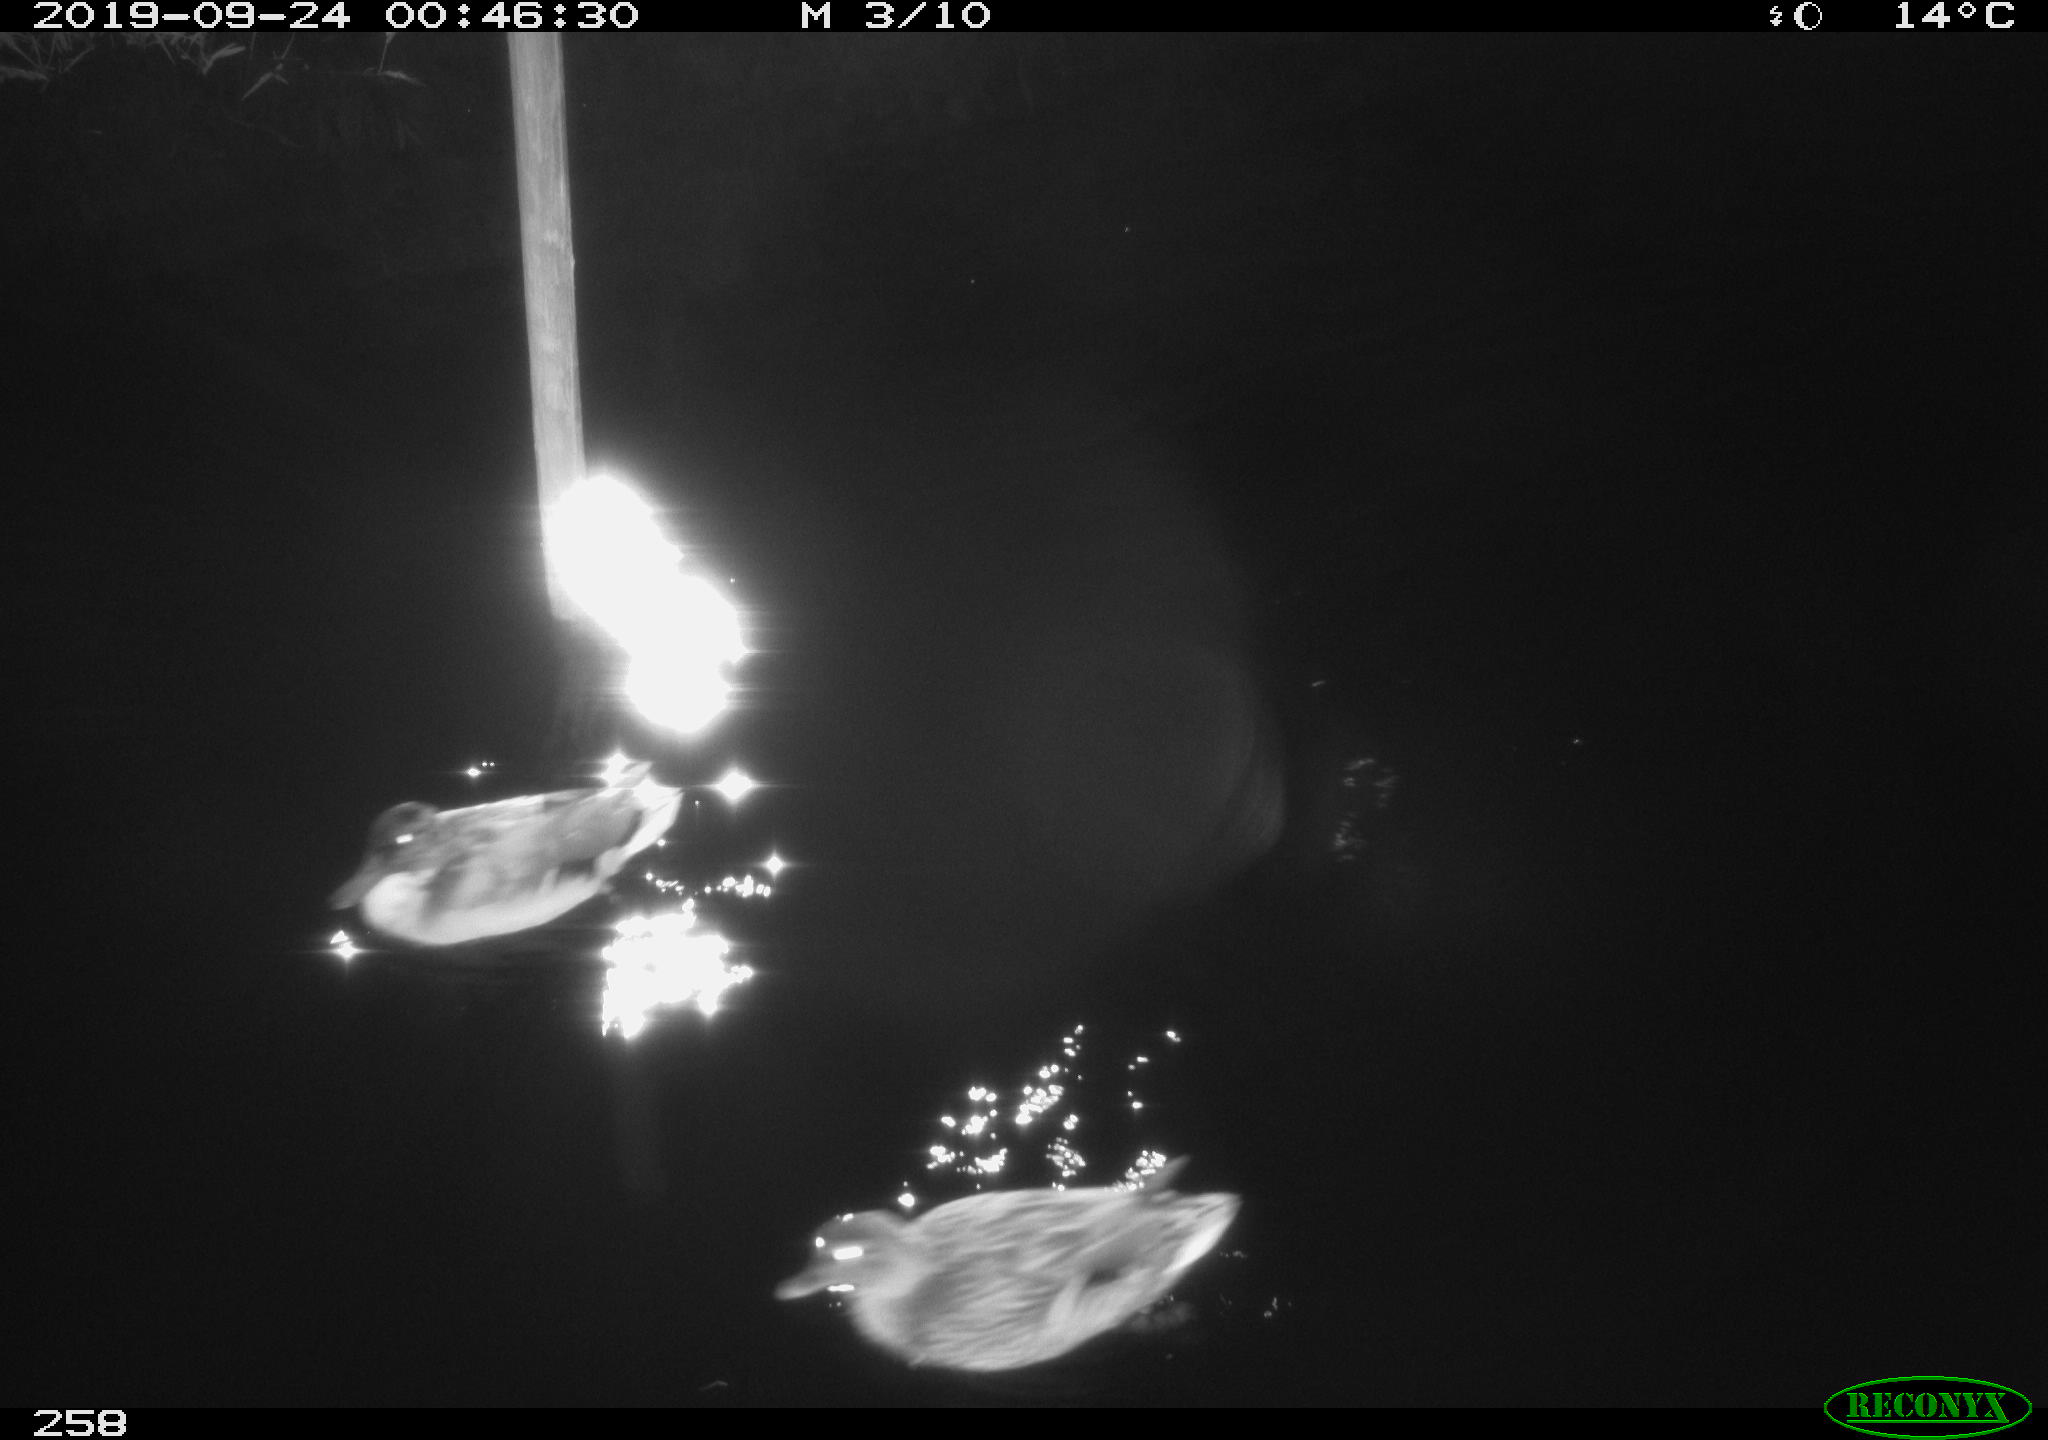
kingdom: Animalia
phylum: Chordata
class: Aves
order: Anseriformes
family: Anatidae
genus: Anas
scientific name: Anas platyrhynchos
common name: Mallard
